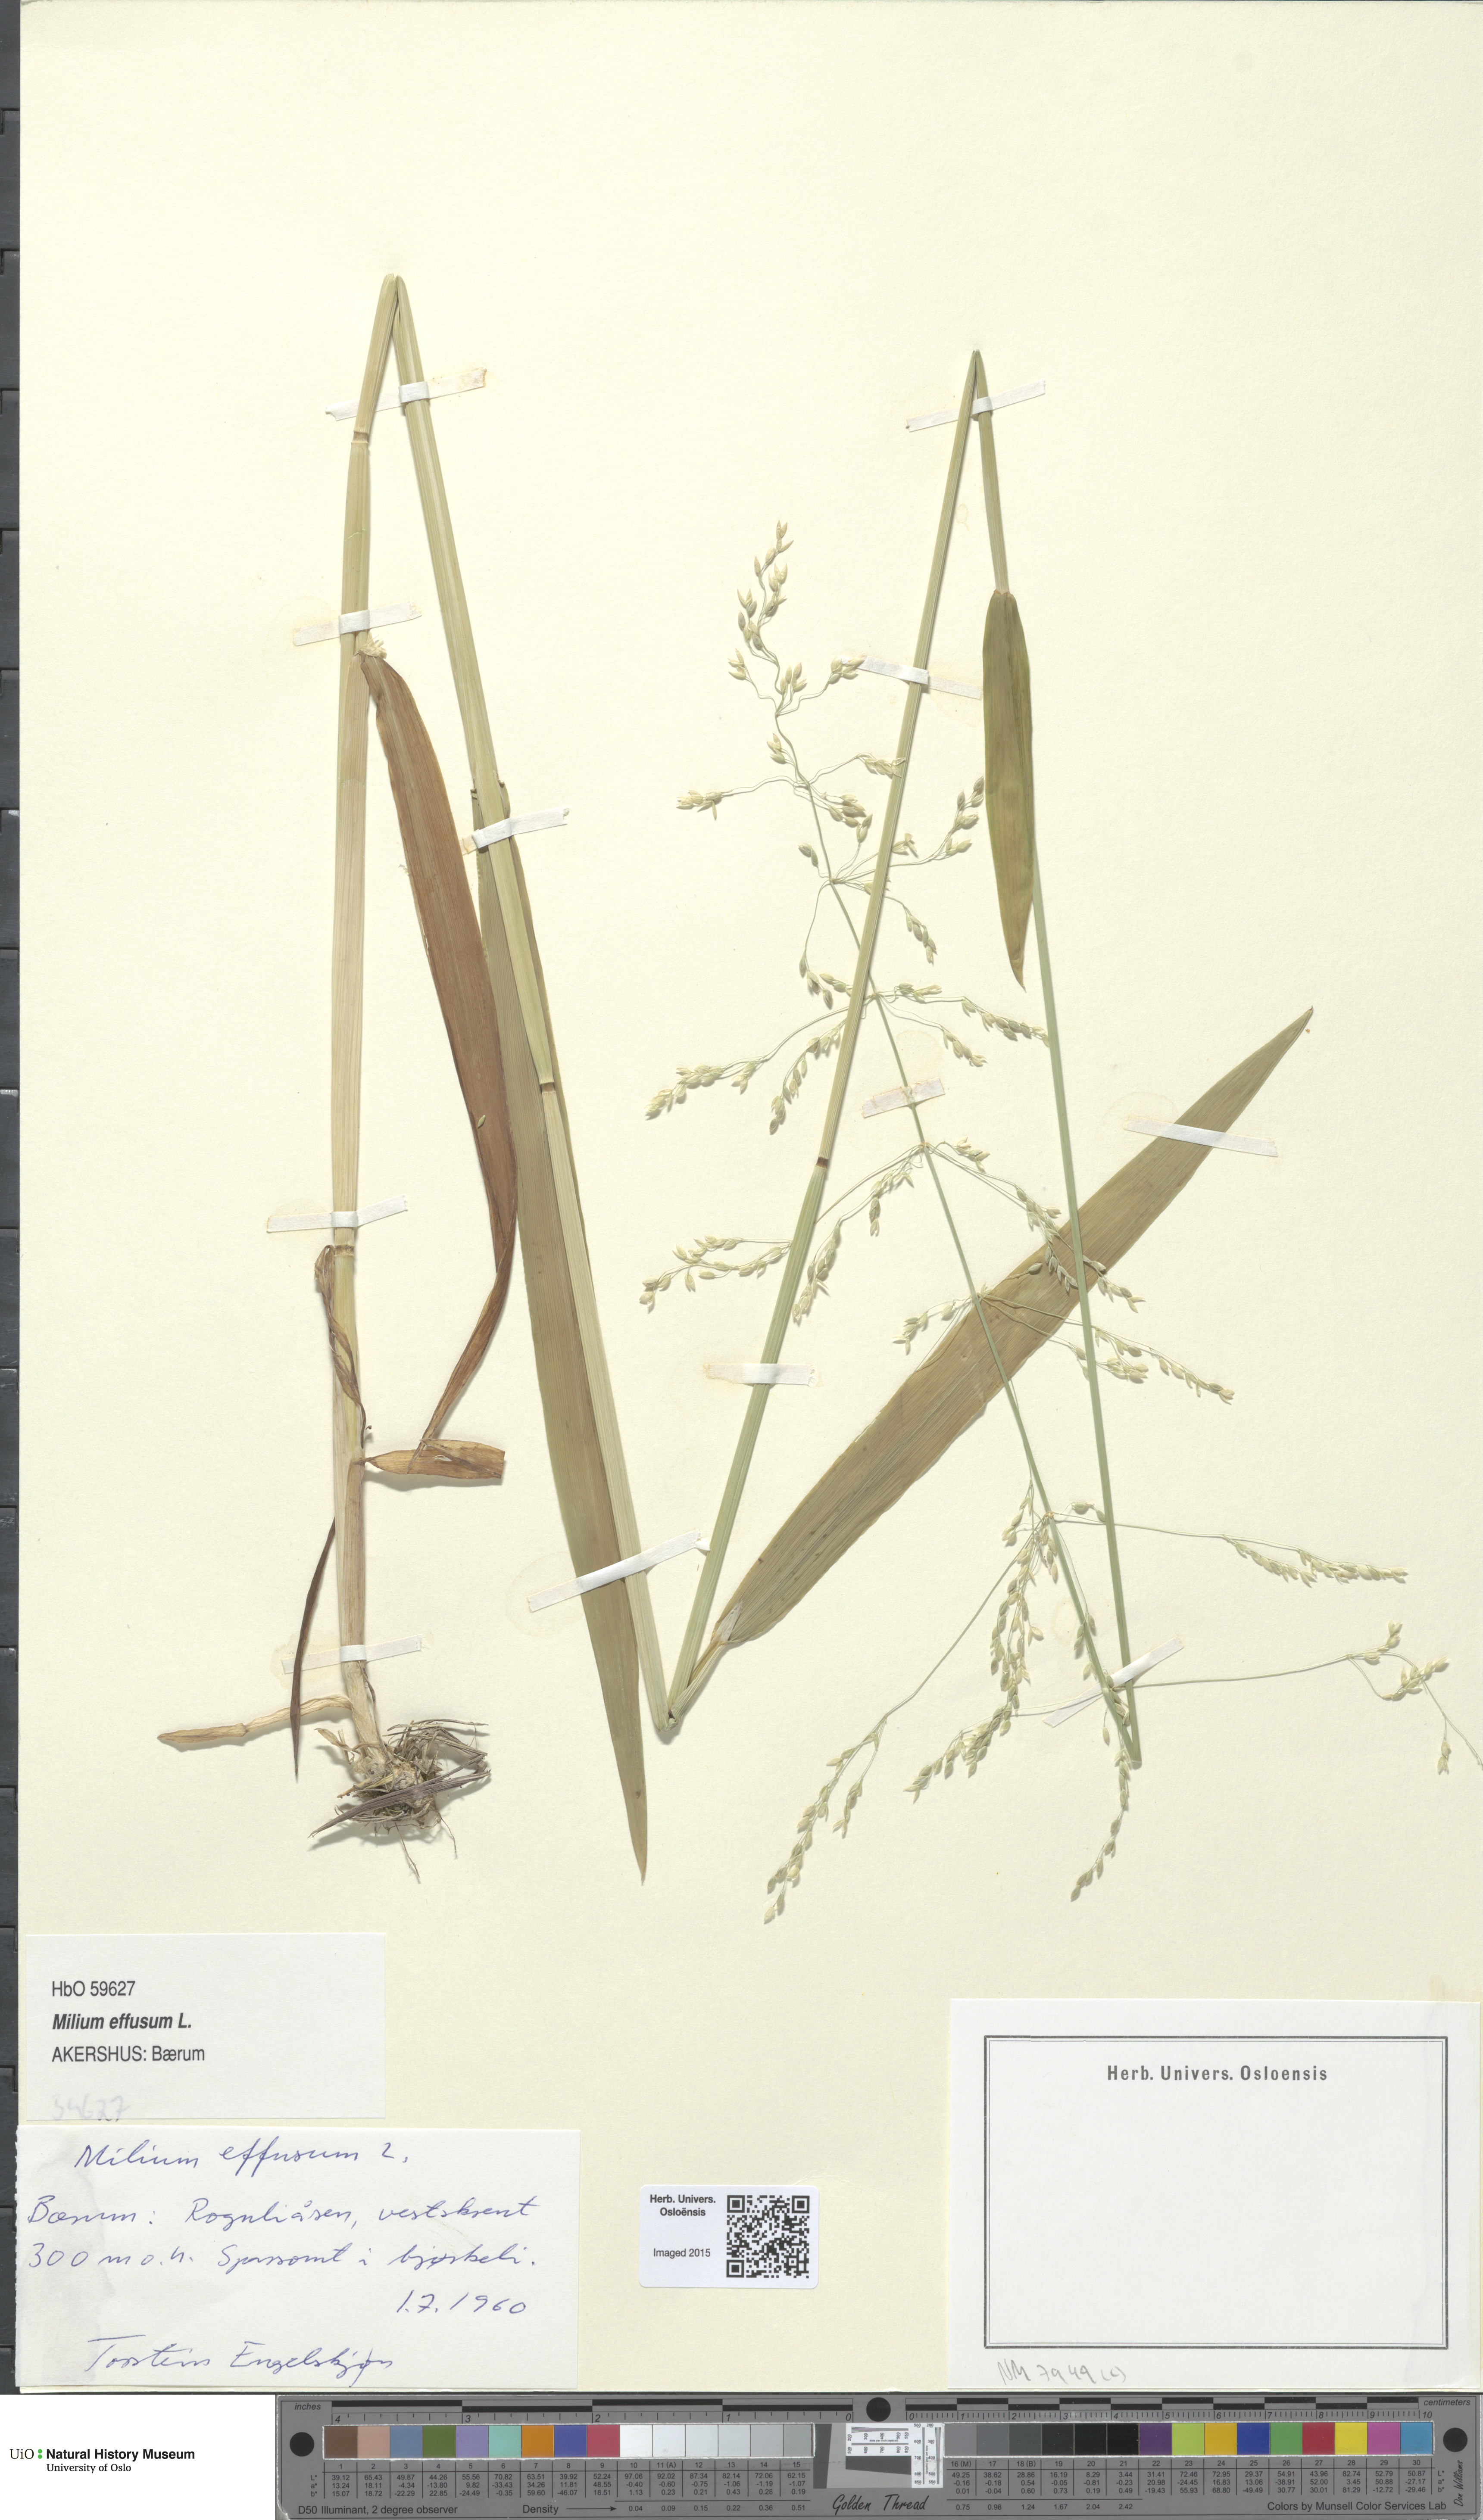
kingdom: Plantae
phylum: Tracheophyta
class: Liliopsida
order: Poales
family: Poaceae
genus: Milium
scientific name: Milium effusum
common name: Wood millet
